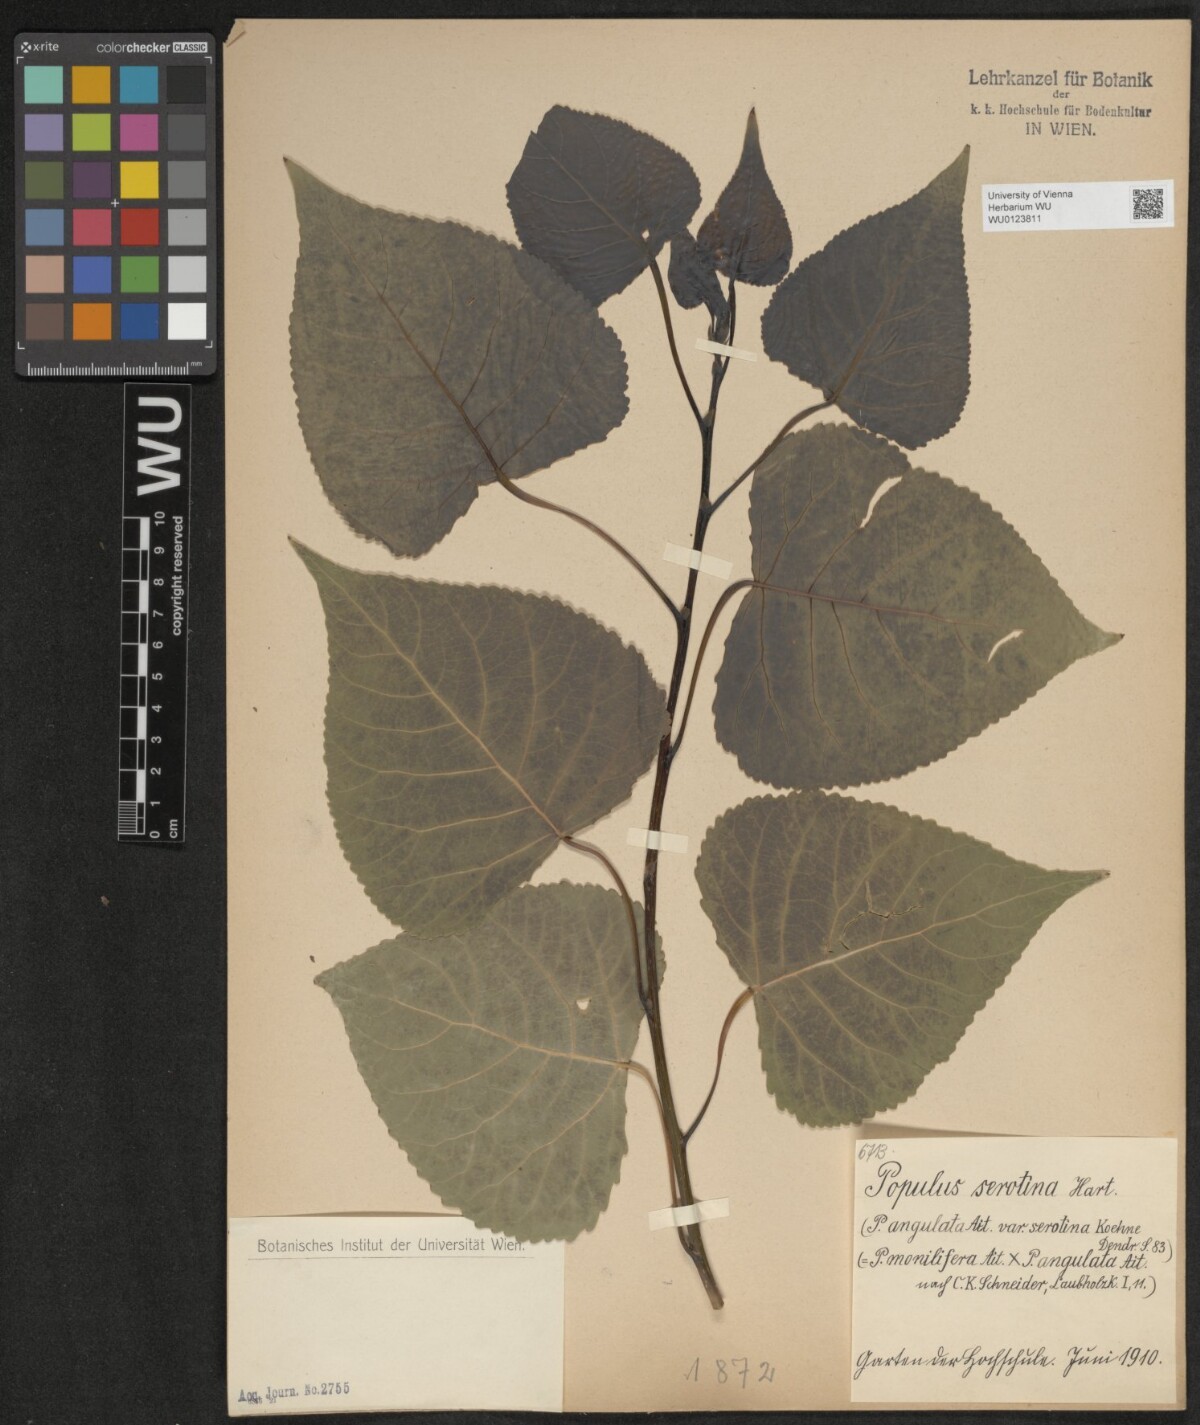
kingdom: Plantae
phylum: Tracheophyta
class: Magnoliopsida
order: Malpighiales
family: Salicaceae
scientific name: Salicaceae
